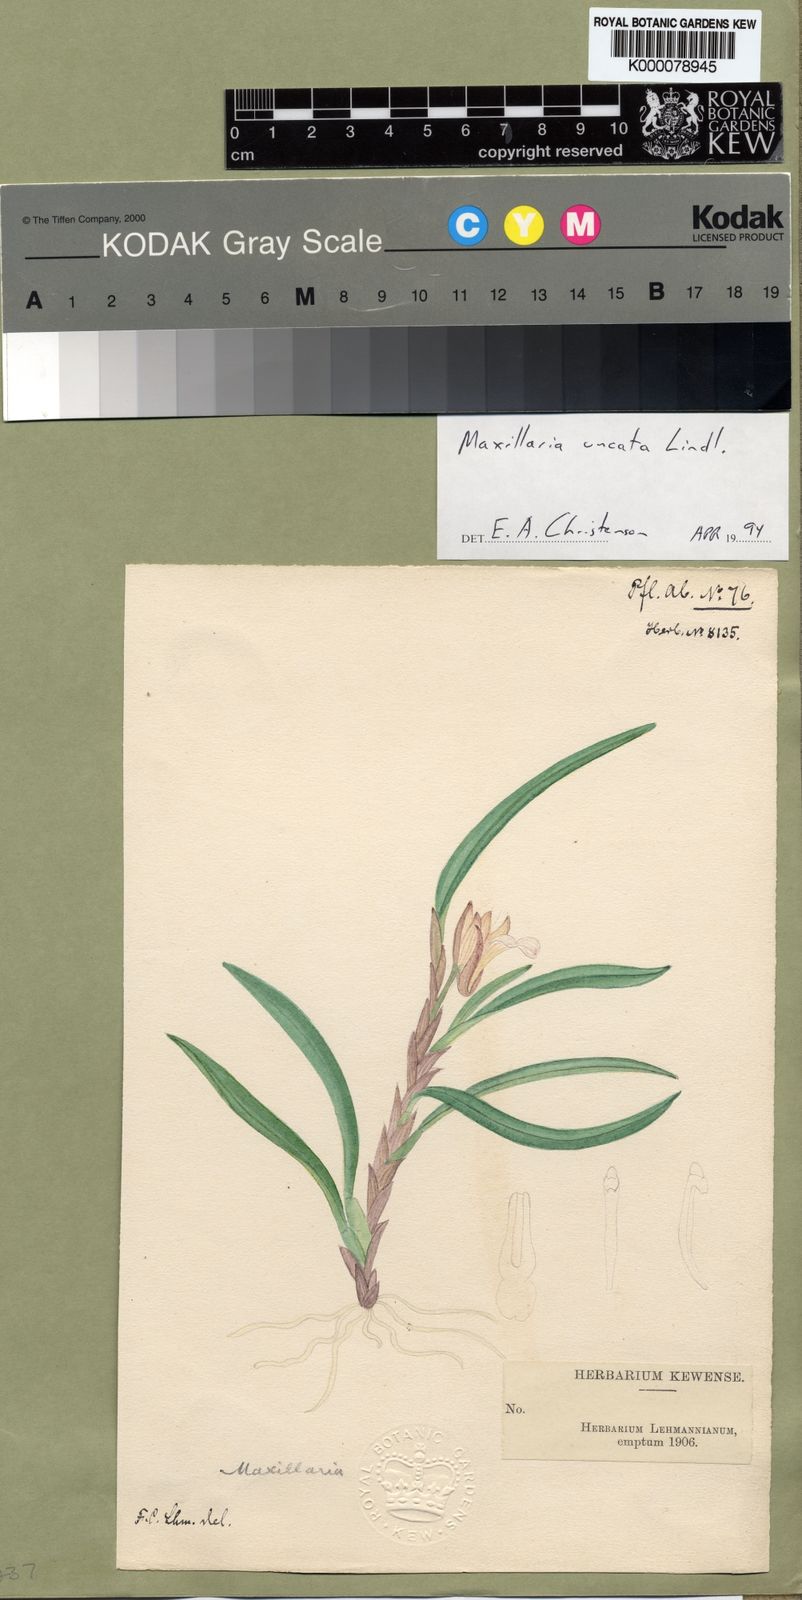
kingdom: Plantae
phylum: Tracheophyta
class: Liliopsida
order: Asparagales
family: Orchidaceae
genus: Maxillaria
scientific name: Maxillaria uncata
